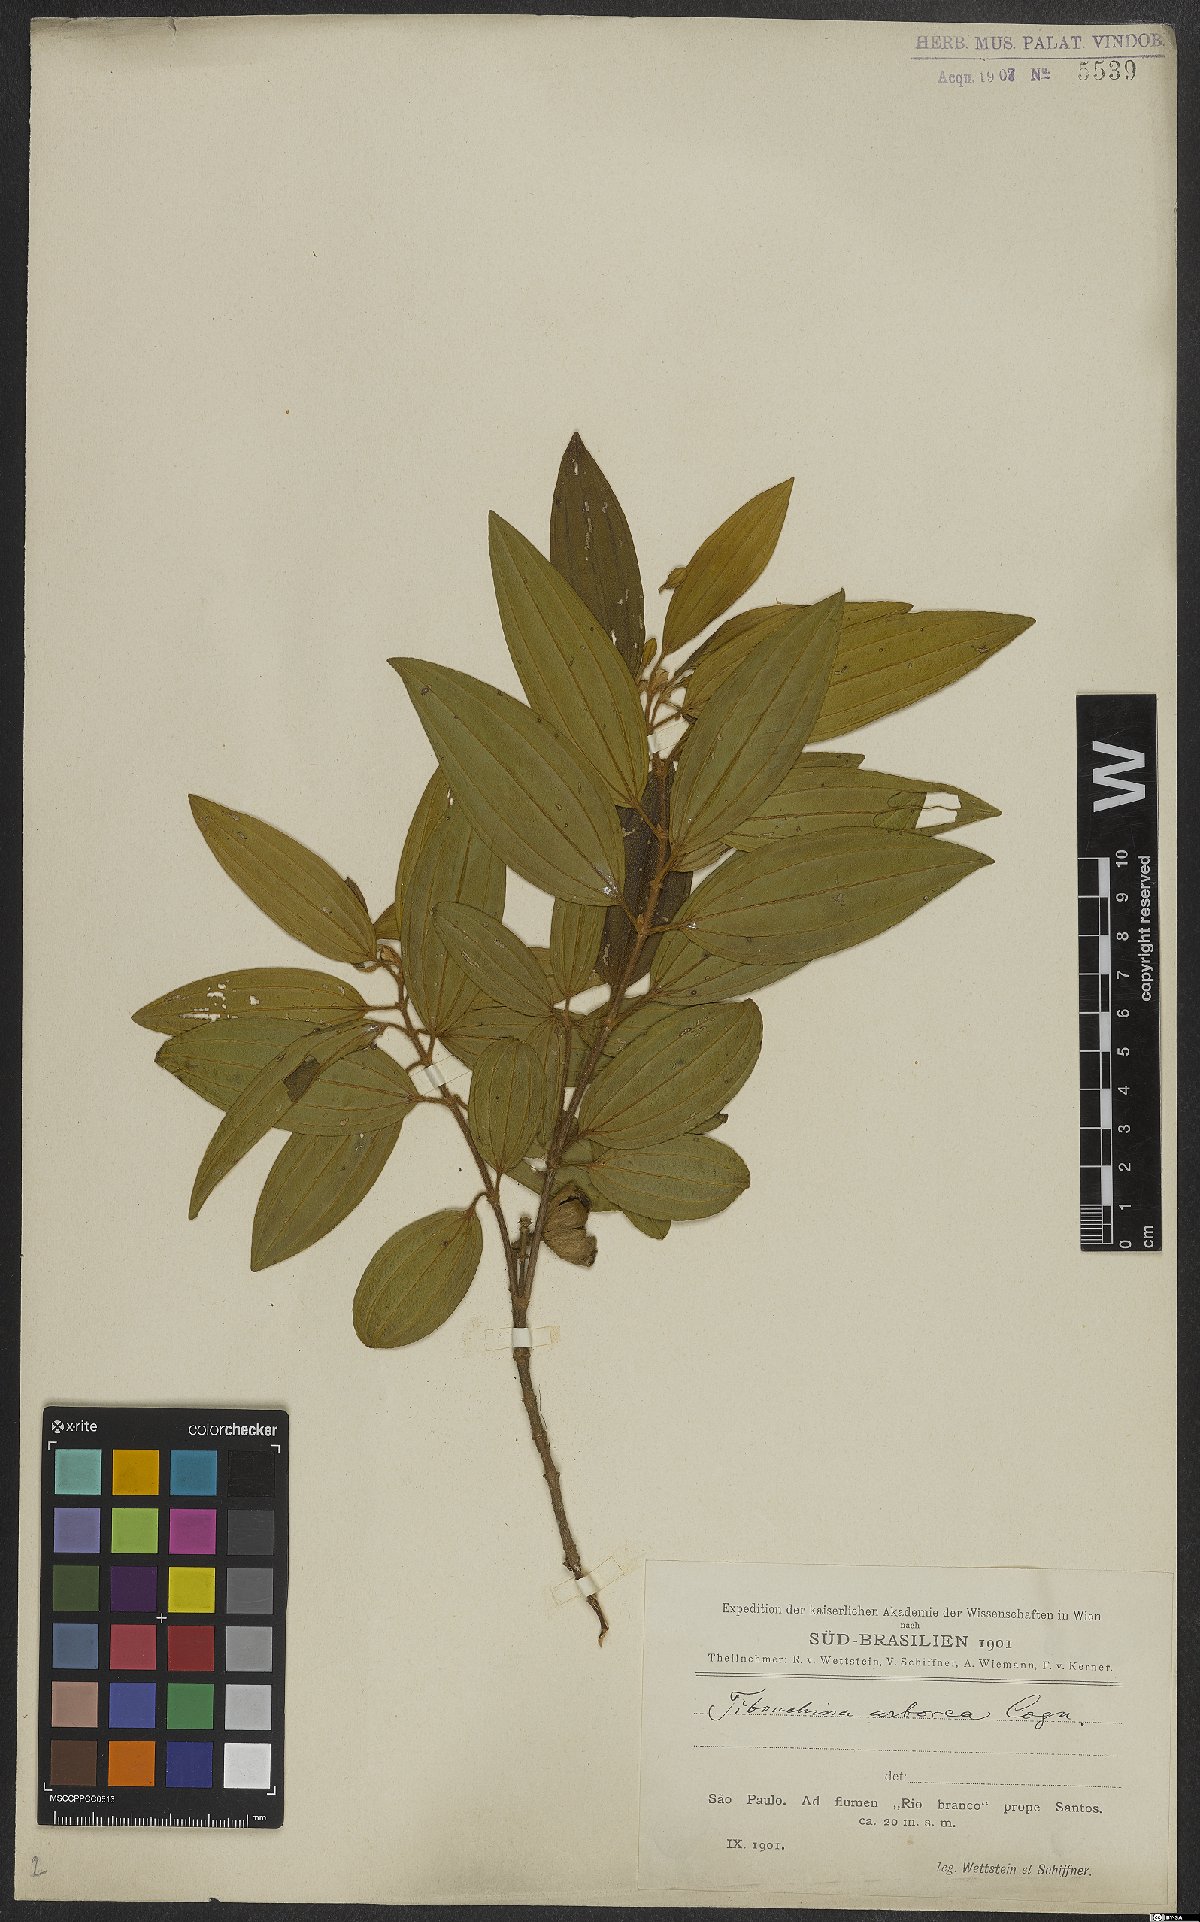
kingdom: Plantae
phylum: Tracheophyta
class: Magnoliopsida
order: Myrtales
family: Melastomataceae
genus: Pleroma
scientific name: Pleroma arboreum
